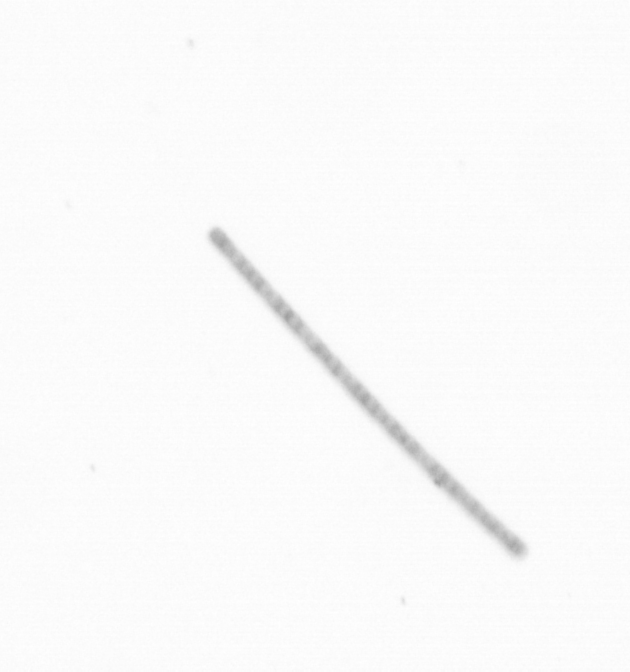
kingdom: Chromista
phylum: Ochrophyta
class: Bacillariophyceae
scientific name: Bacillariophyceae
